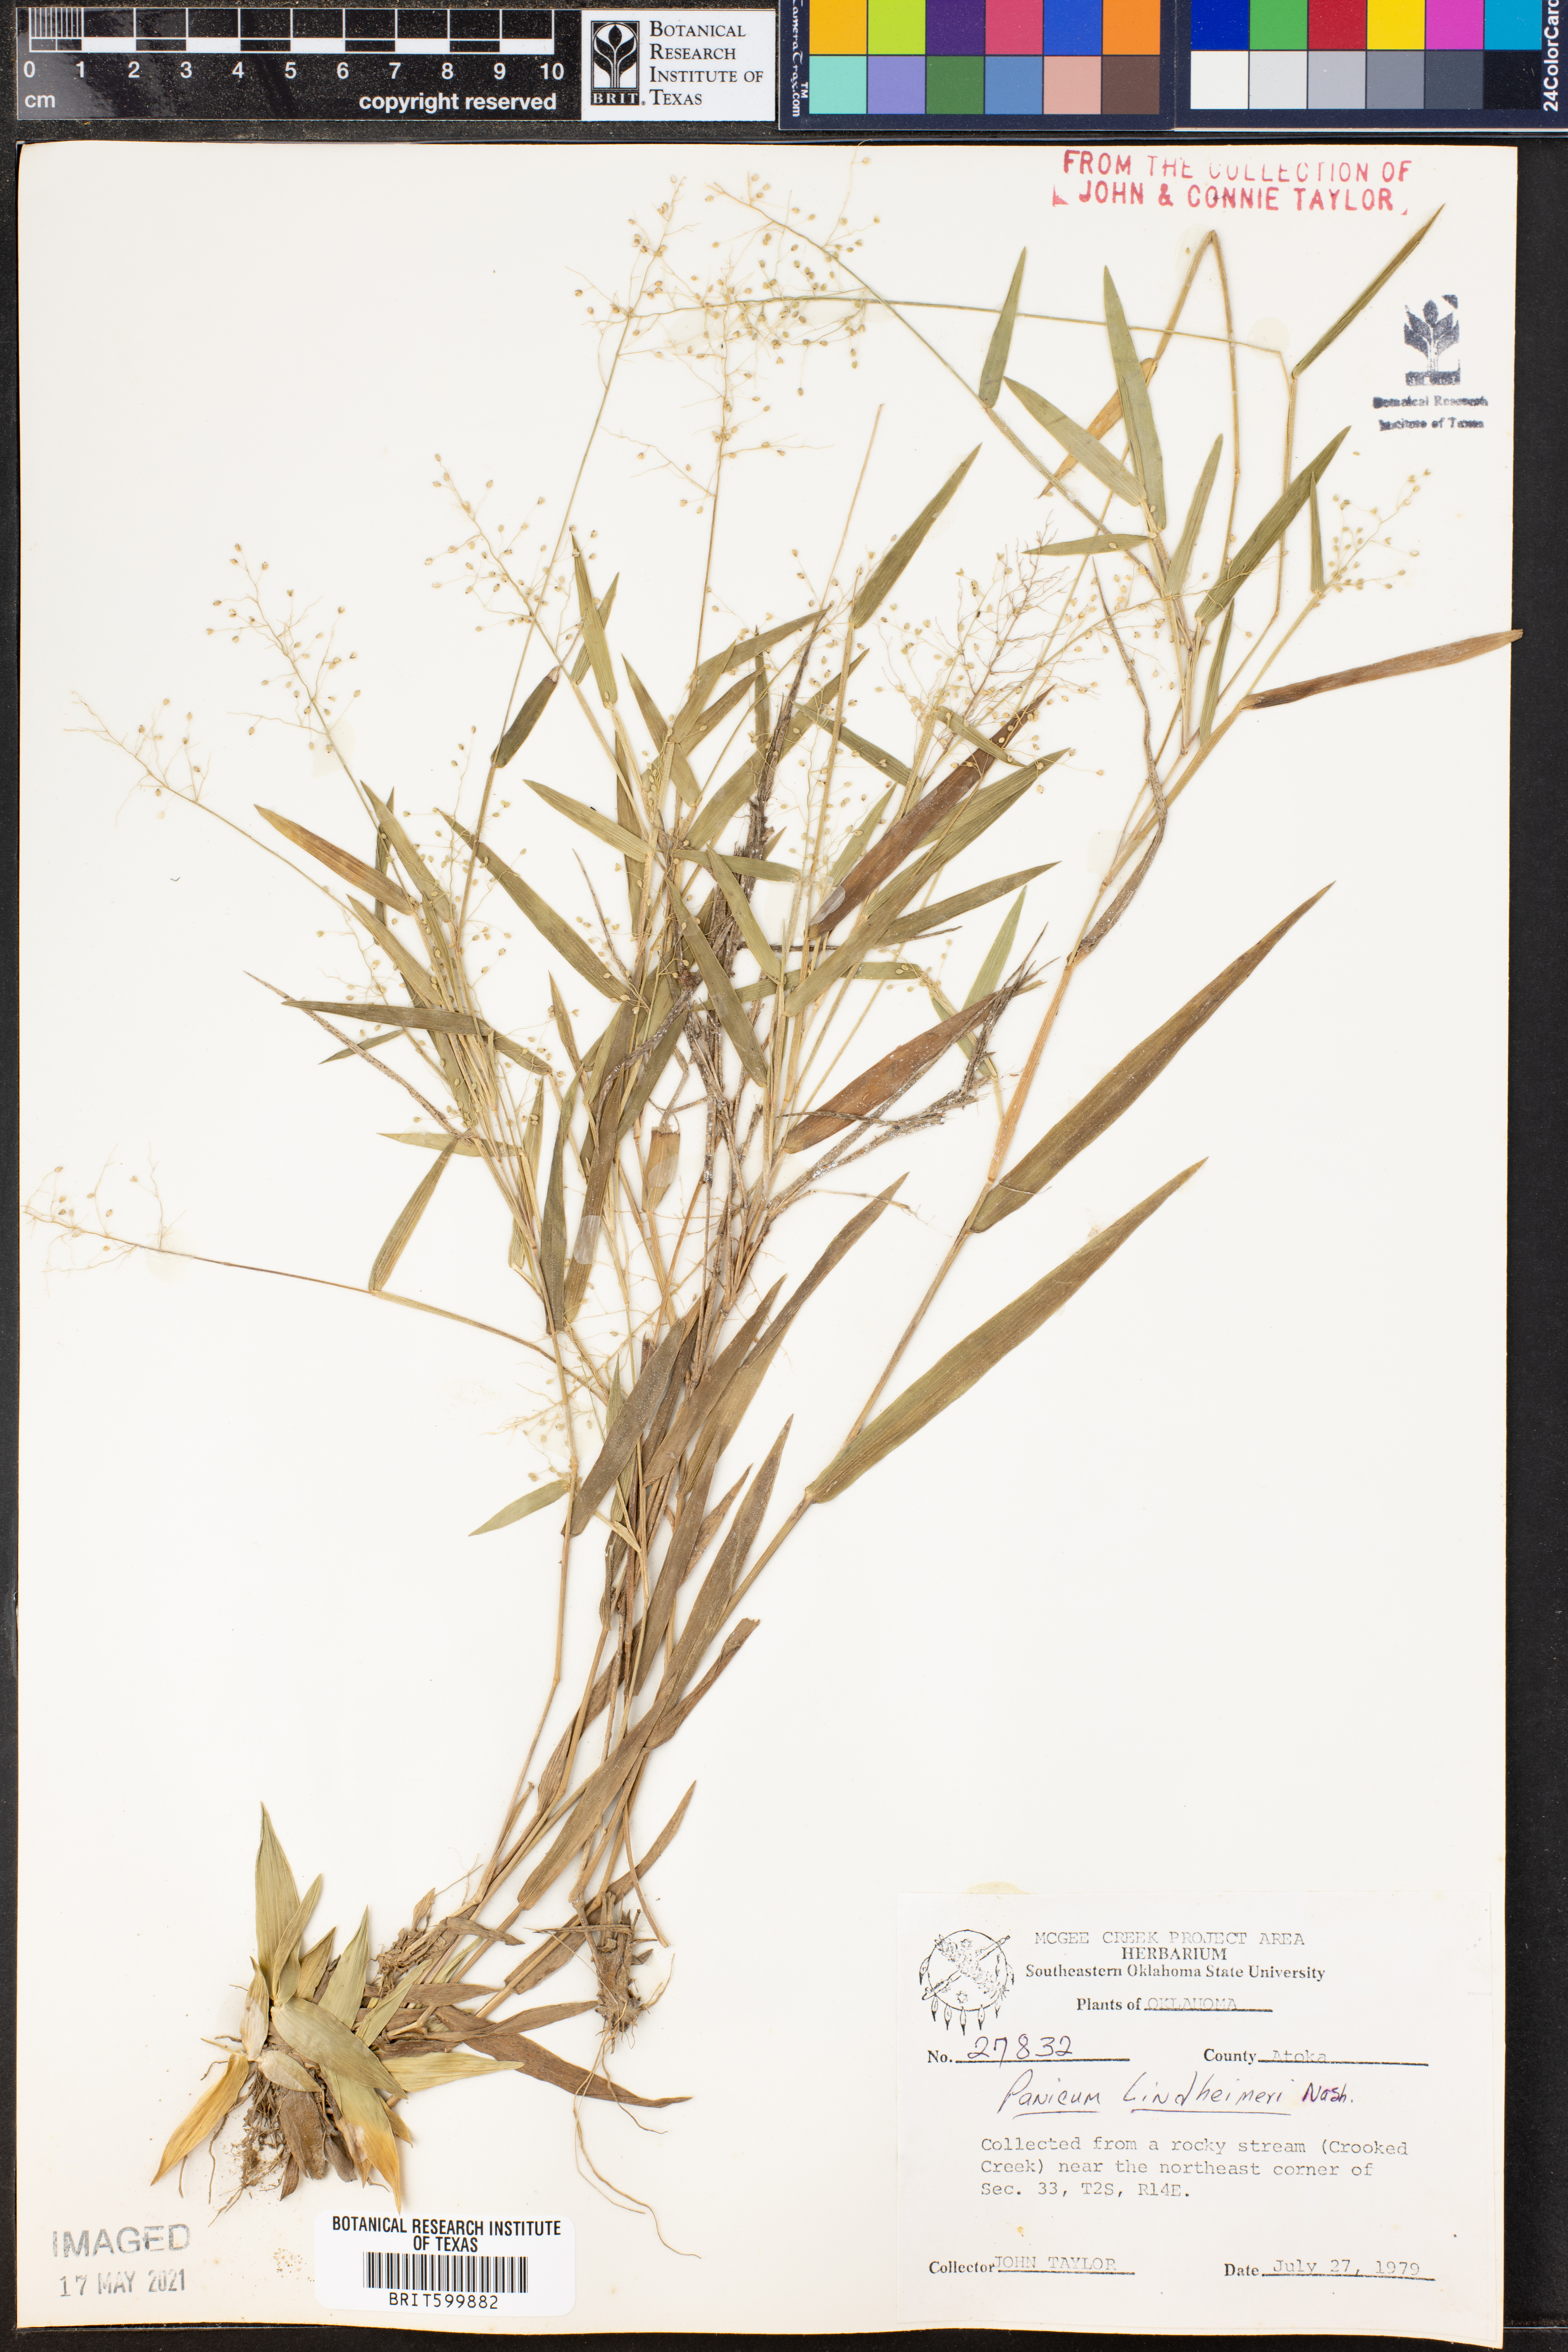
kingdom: Plantae
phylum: Tracheophyta
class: Liliopsida
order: Poales
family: Poaceae
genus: Dichanthelium
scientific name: Dichanthelium lindheimeri
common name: Lindheimer's panicgrass
